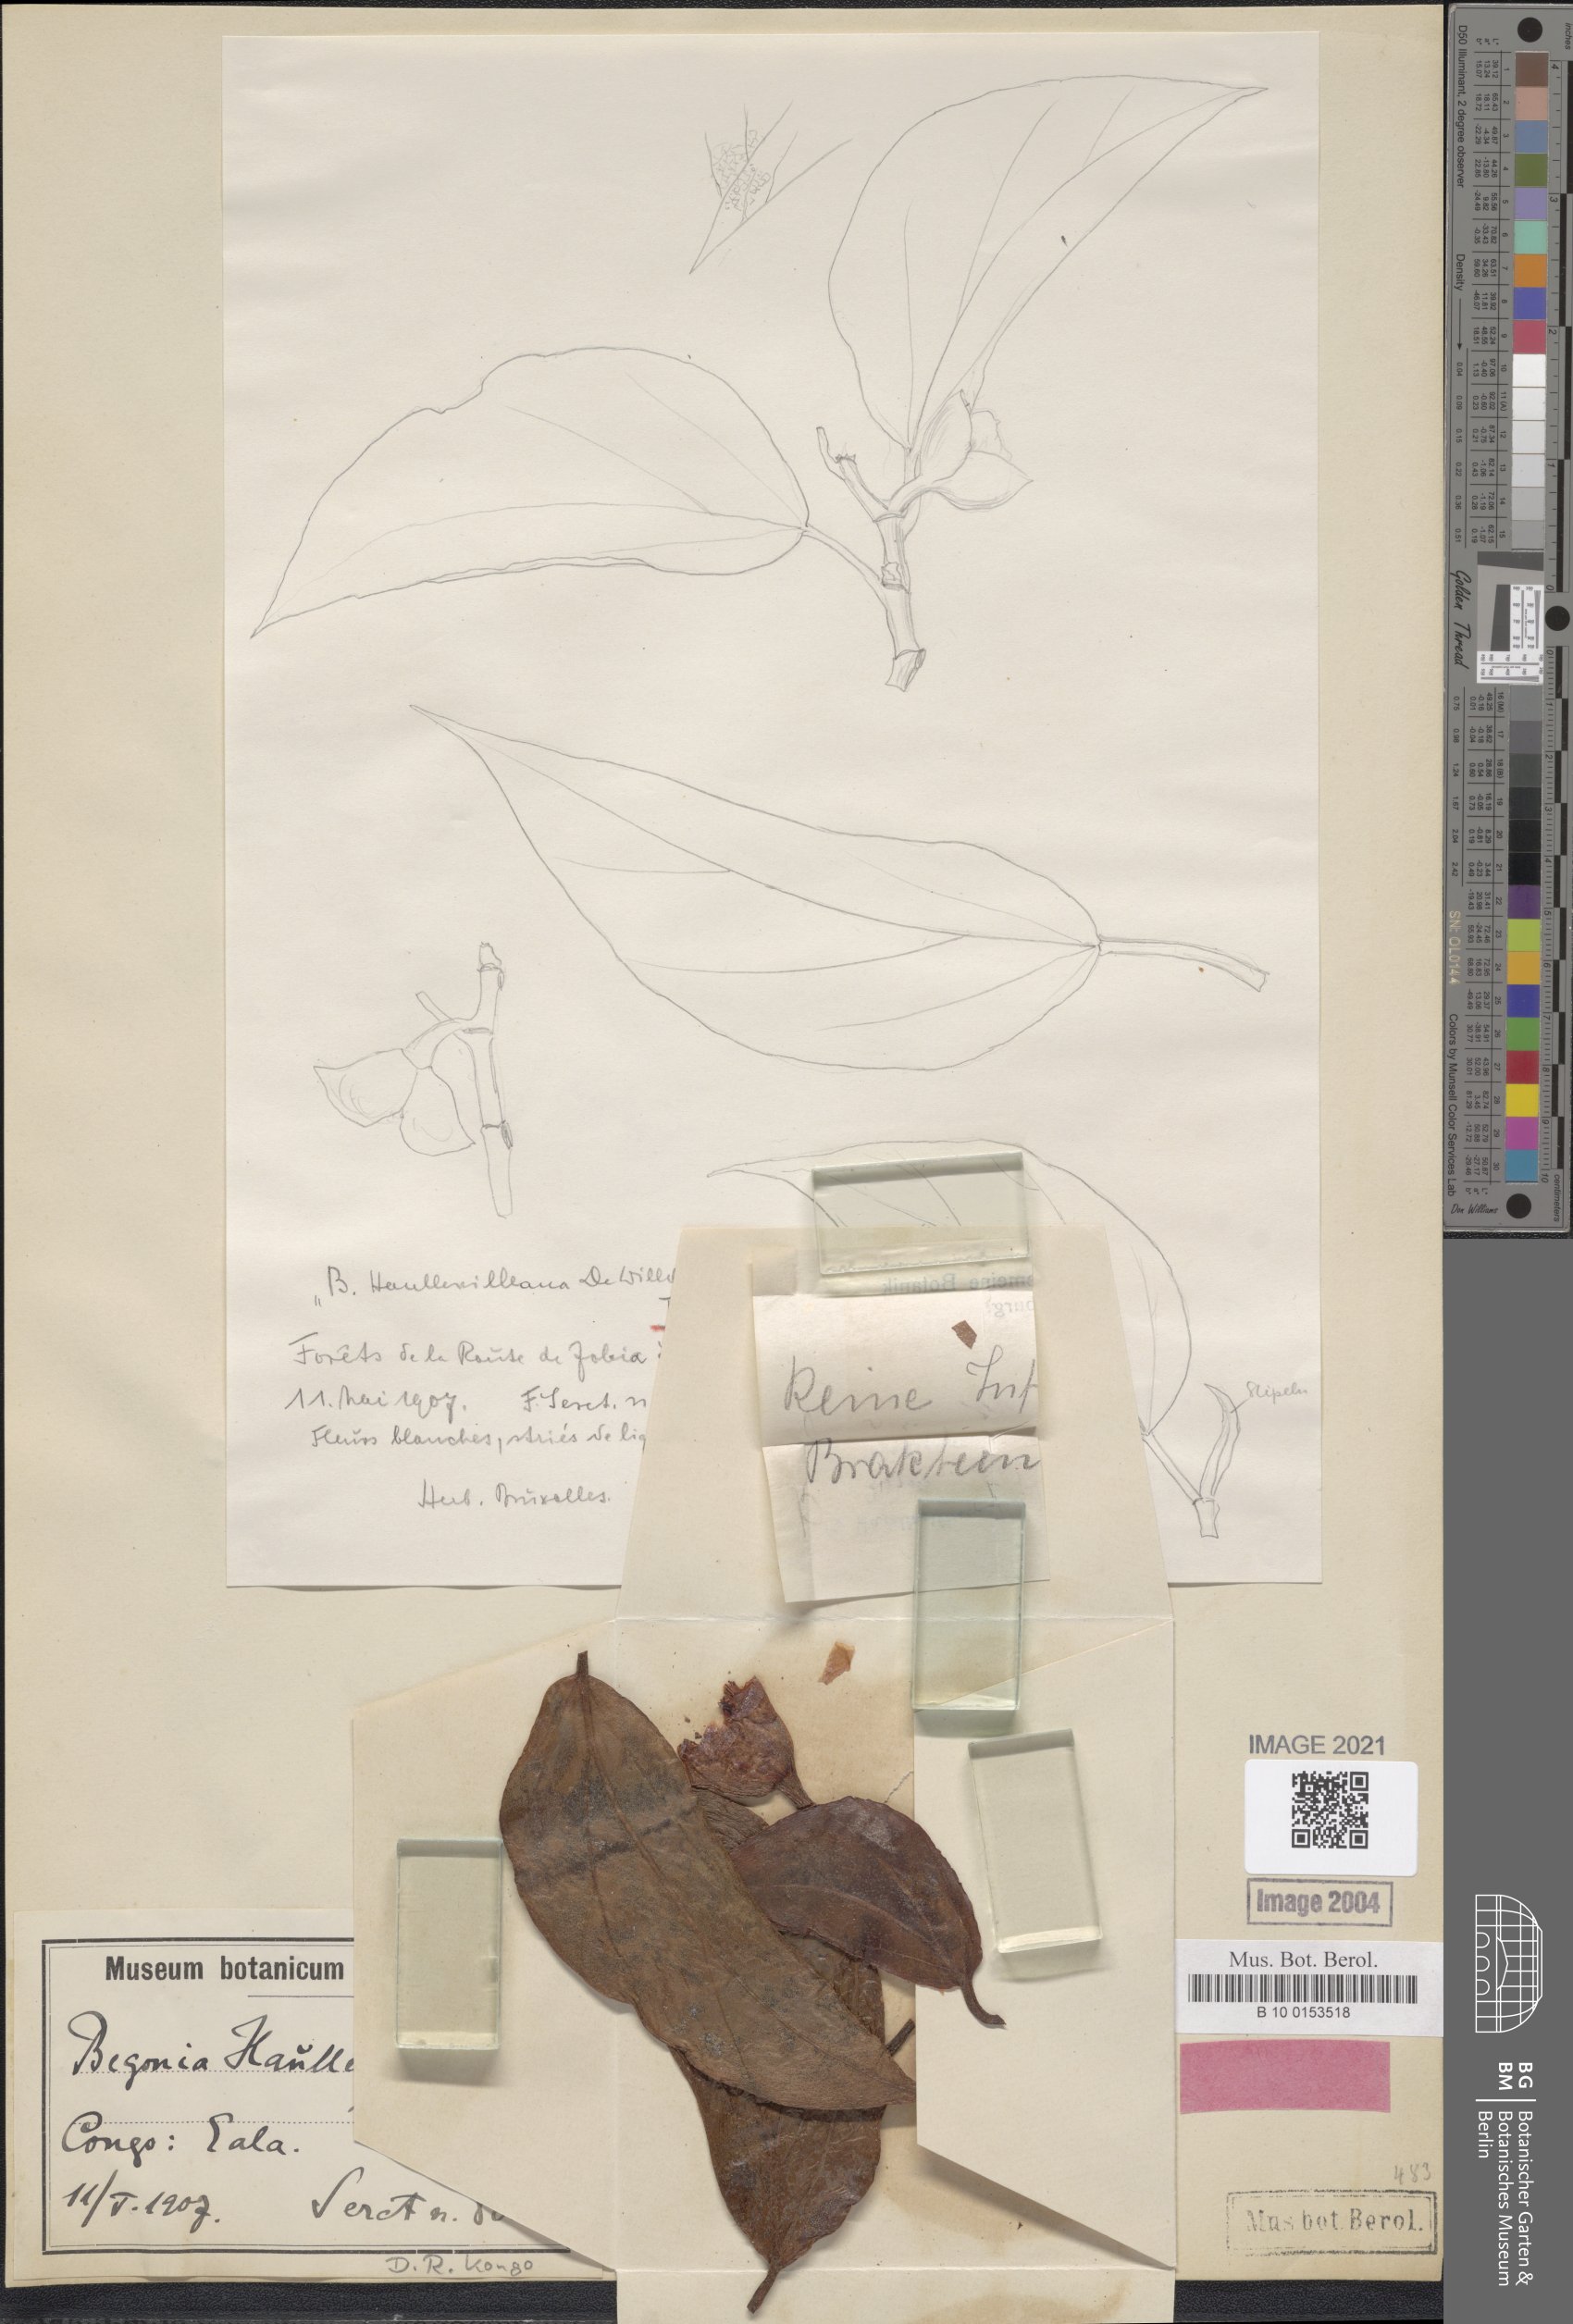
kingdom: Plantae
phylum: Tracheophyta
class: Magnoliopsida
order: Cucurbitales
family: Begoniaceae
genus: Begonia
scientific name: Begonia poculifera
